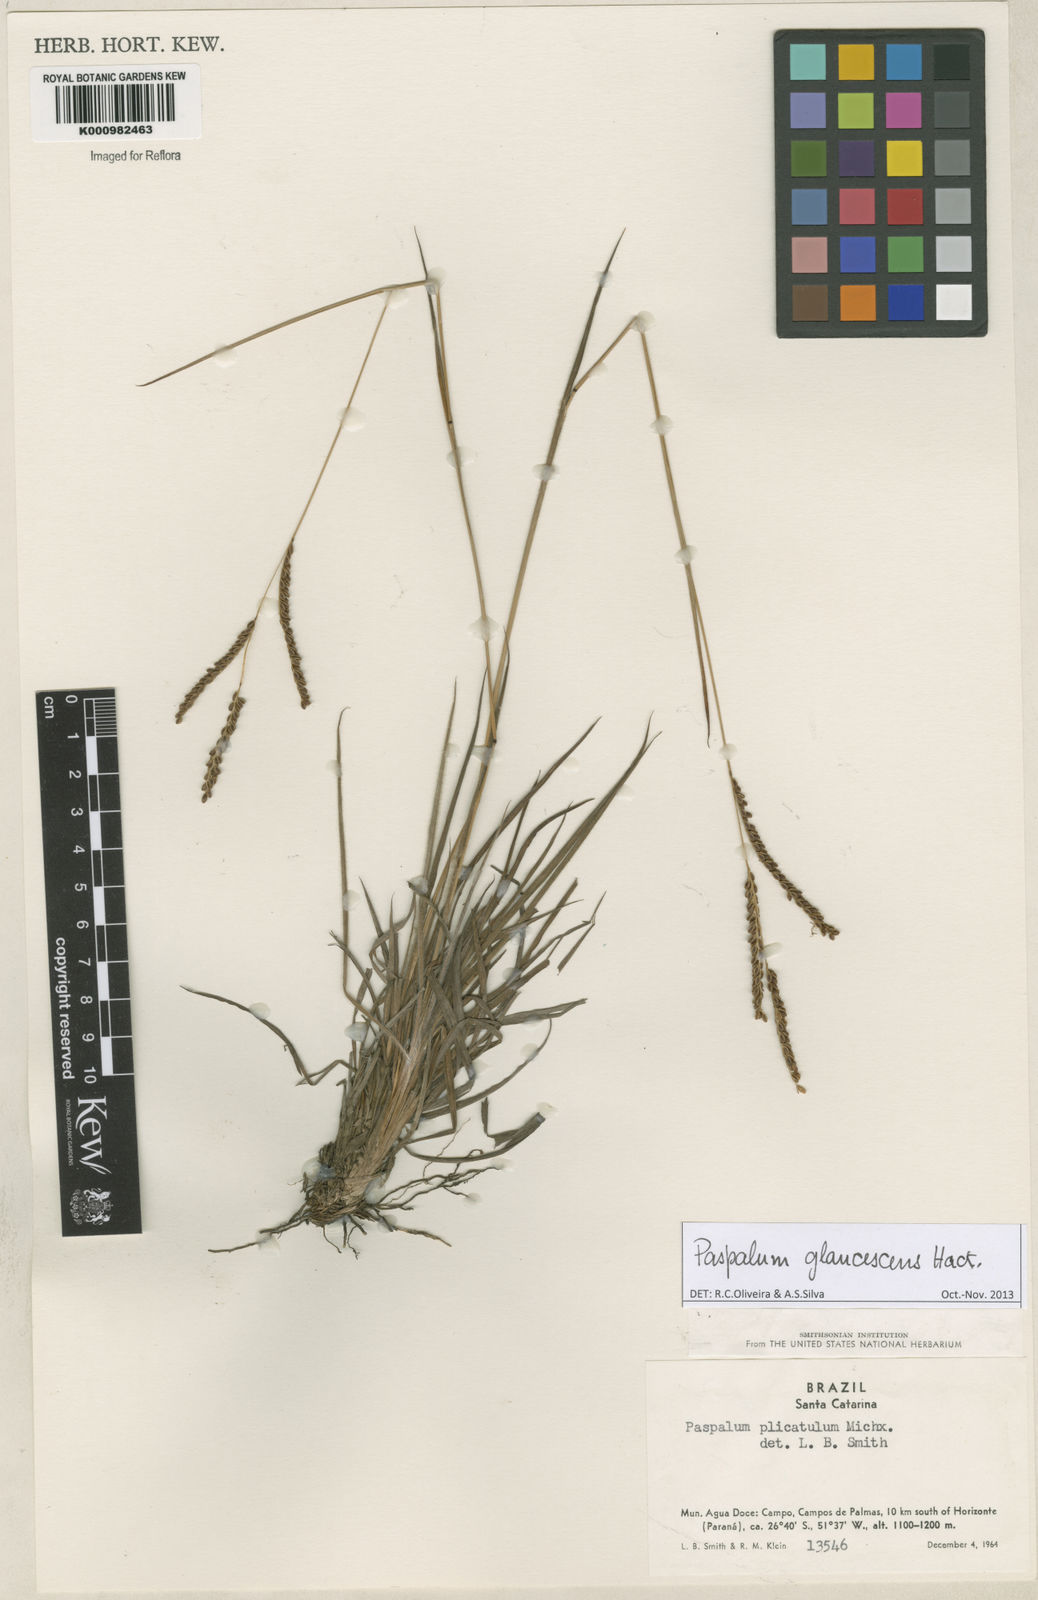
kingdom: Plantae
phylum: Tracheophyta
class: Liliopsida
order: Poales
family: Poaceae
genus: Paspalum
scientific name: Paspalum glaucescens
